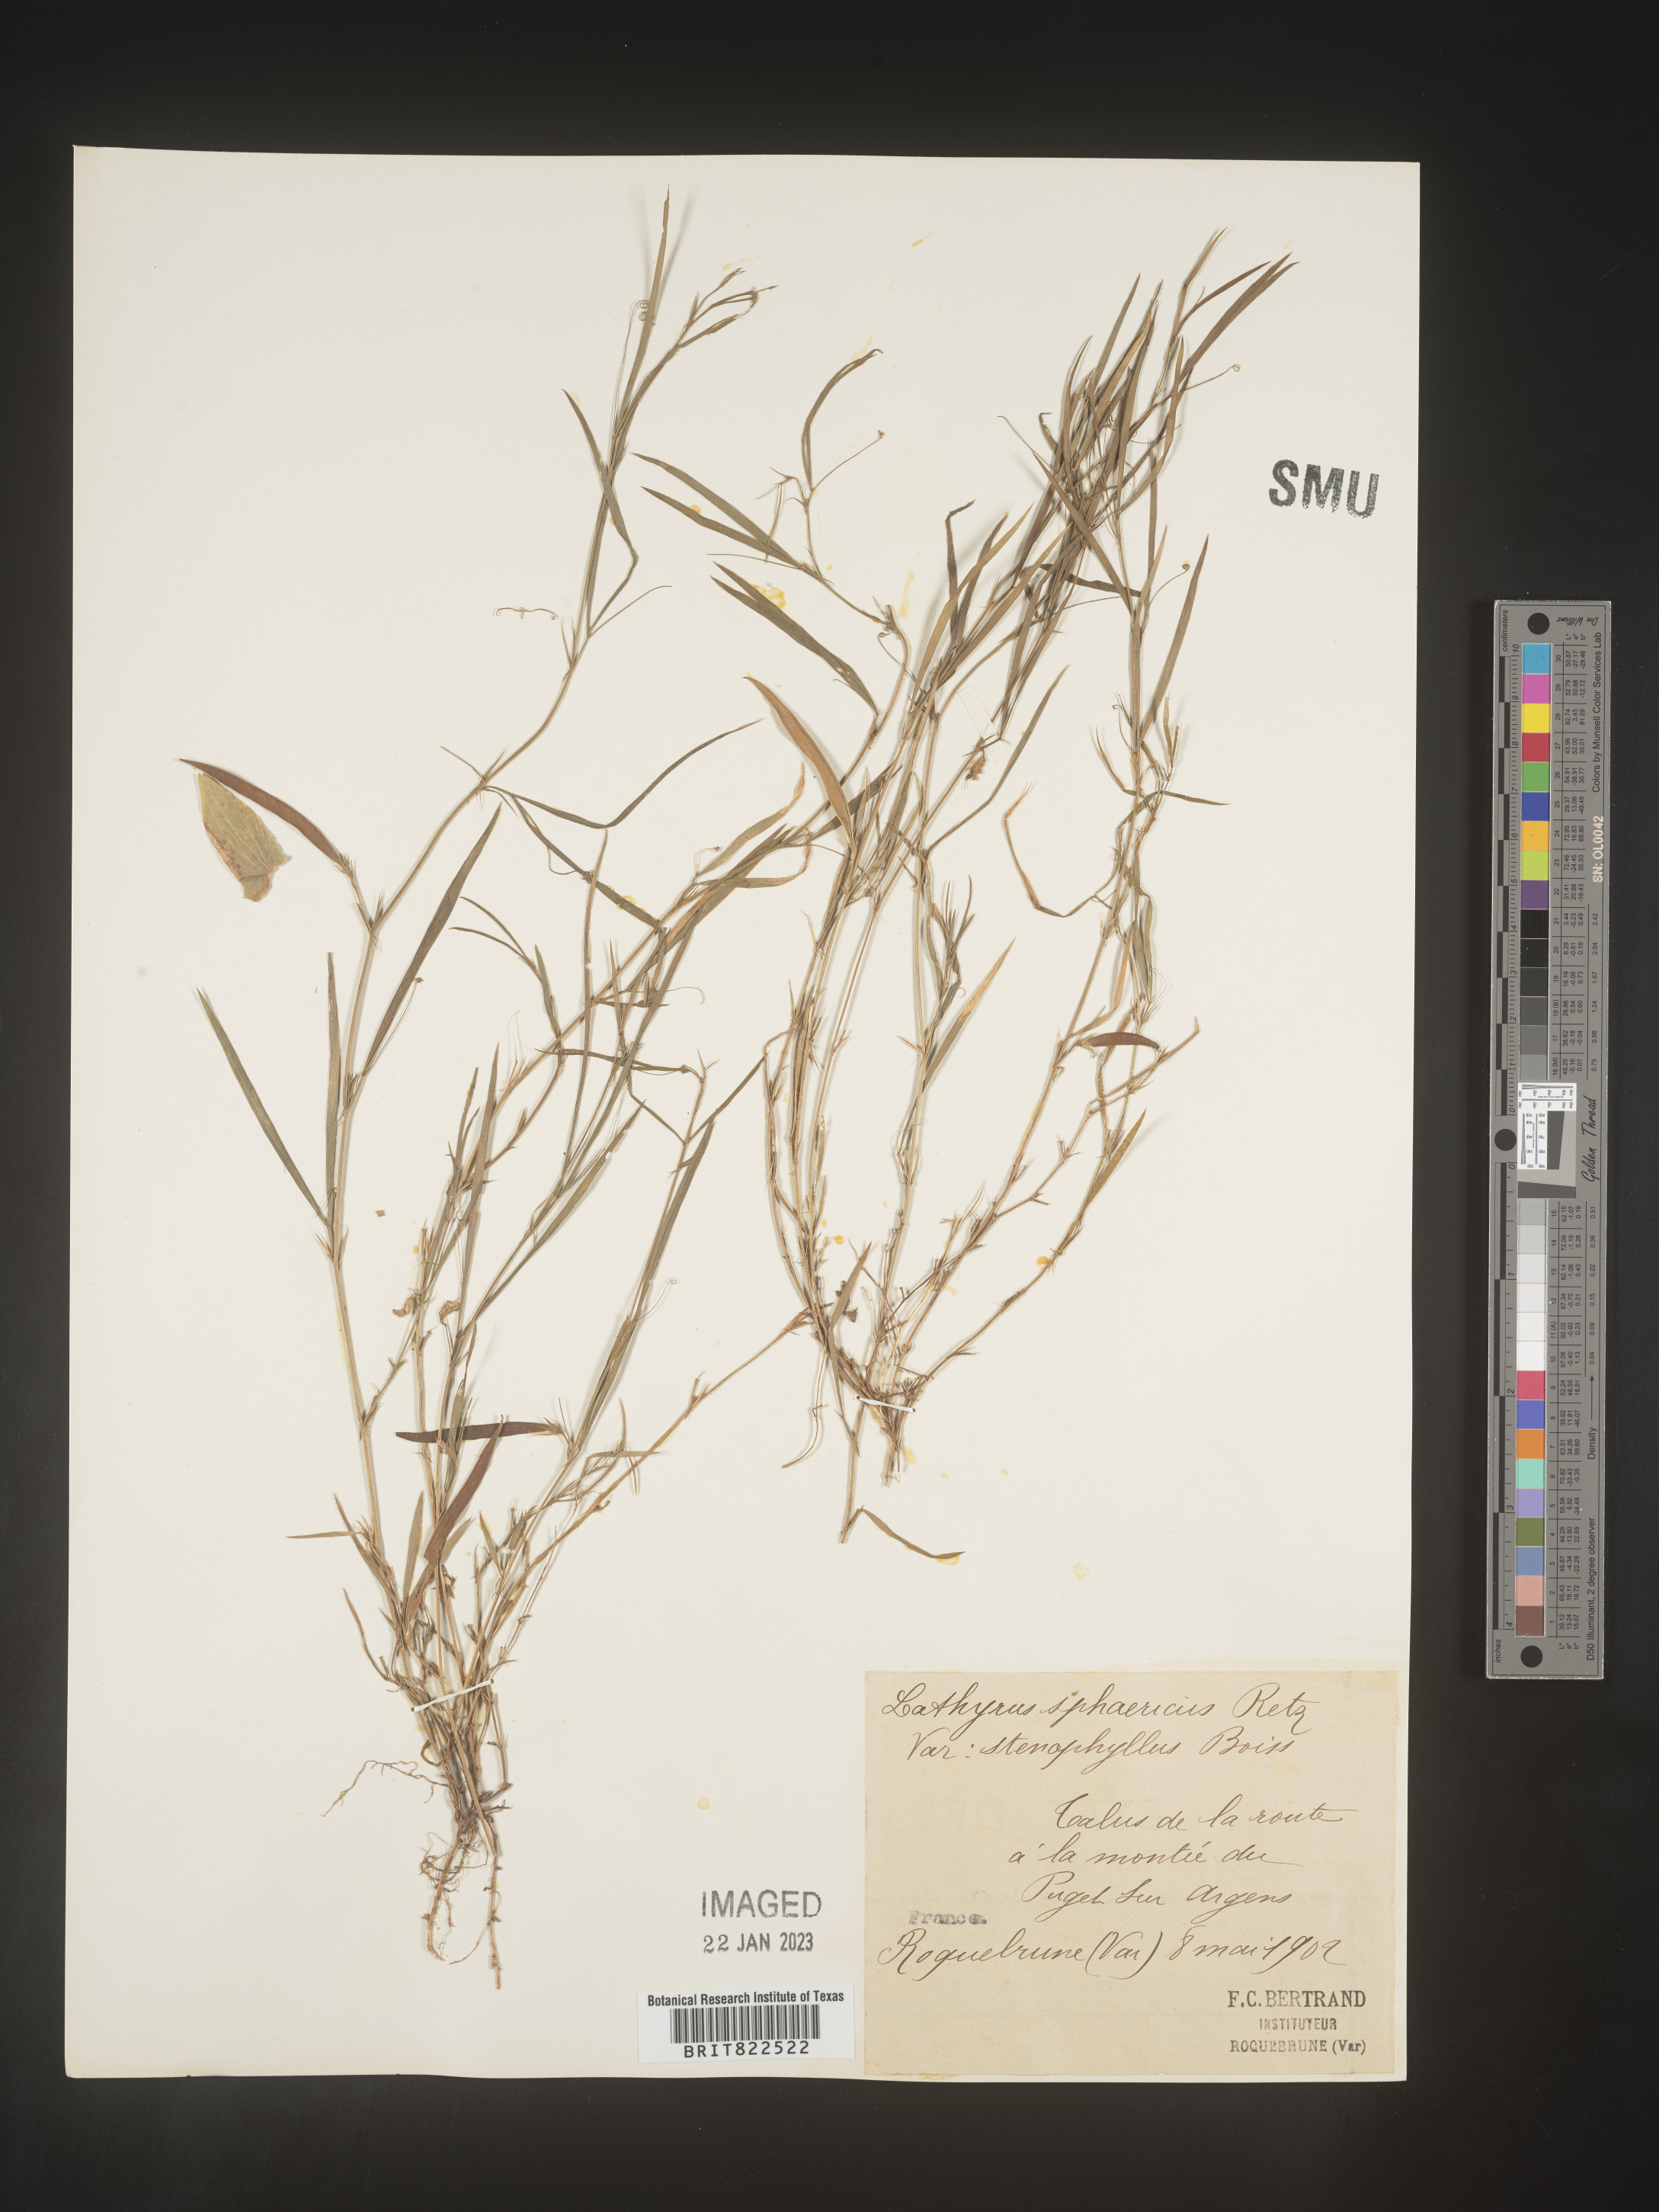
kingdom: Plantae
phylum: Tracheophyta
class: Magnoliopsida
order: Fabales
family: Fabaceae
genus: Lathyrus
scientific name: Lathyrus
